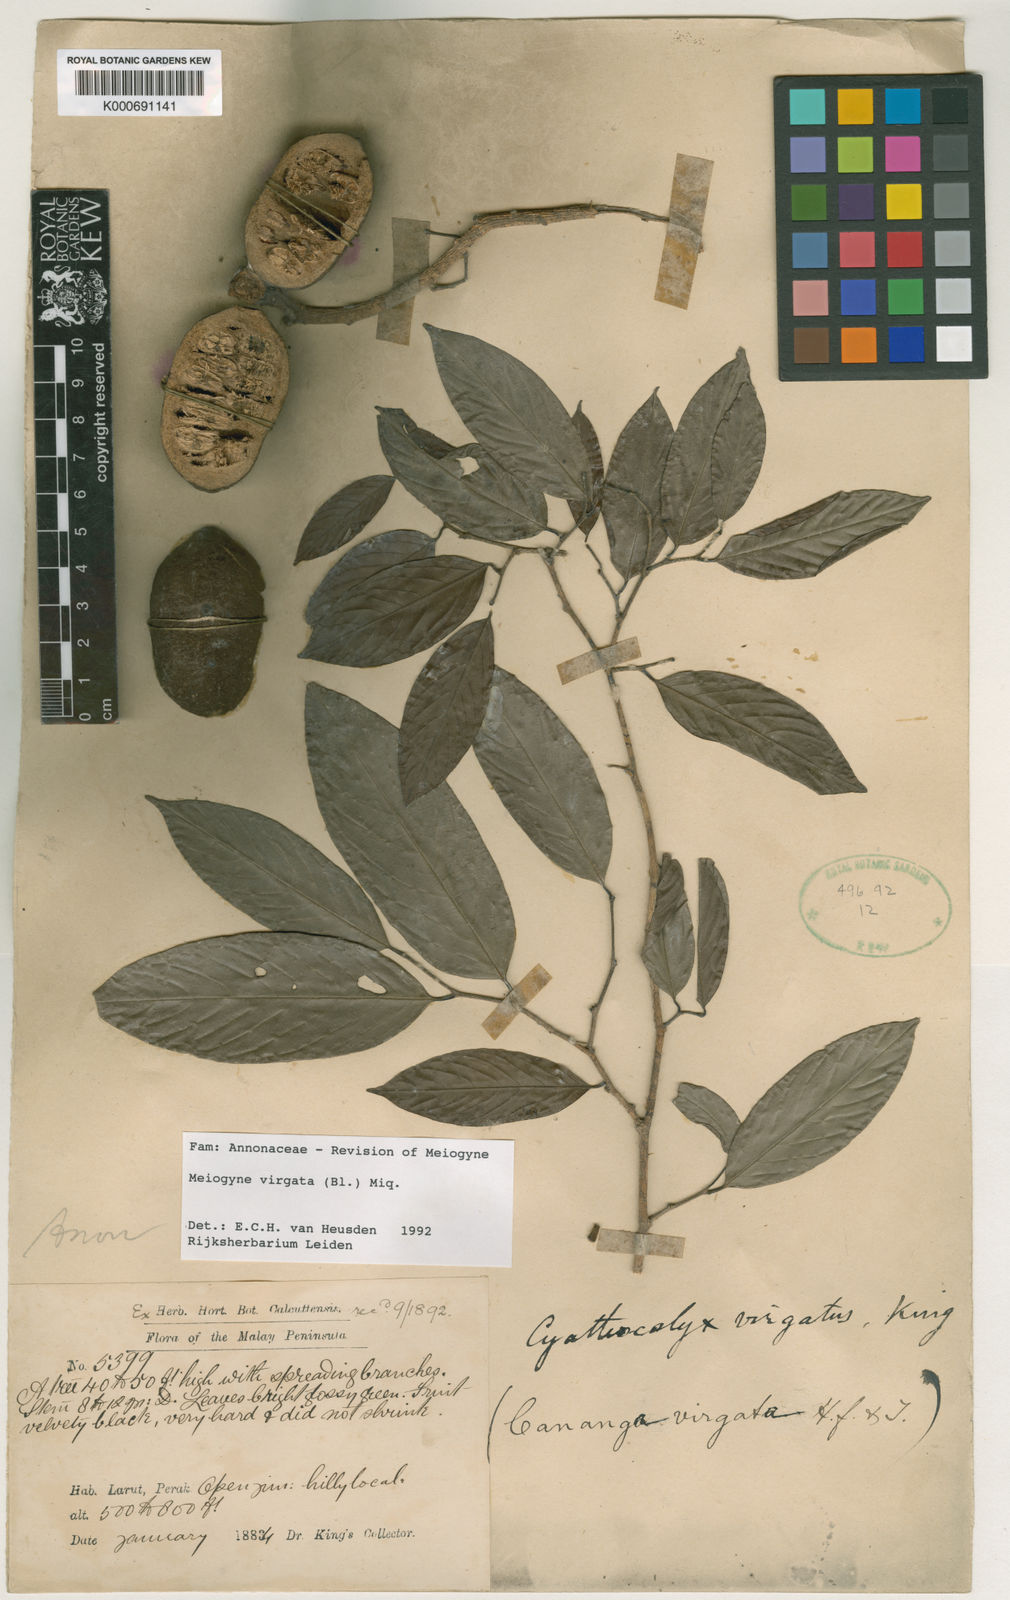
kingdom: Plantae
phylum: Tracheophyta
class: Magnoliopsida
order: Magnoliales
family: Annonaceae
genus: Meiogyne
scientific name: Meiogyne virgata
